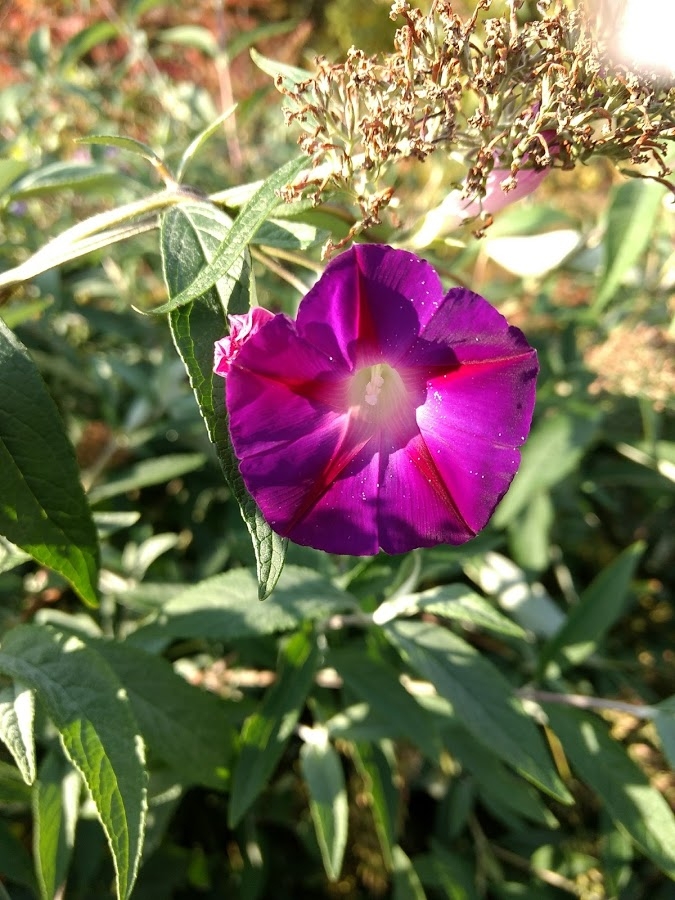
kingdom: Plantae
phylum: Tracheophyta
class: Magnoliopsida
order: Solanales
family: Convolvulaceae
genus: Ipomoea
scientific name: Ipomoea purpurea
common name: Common morning glory
